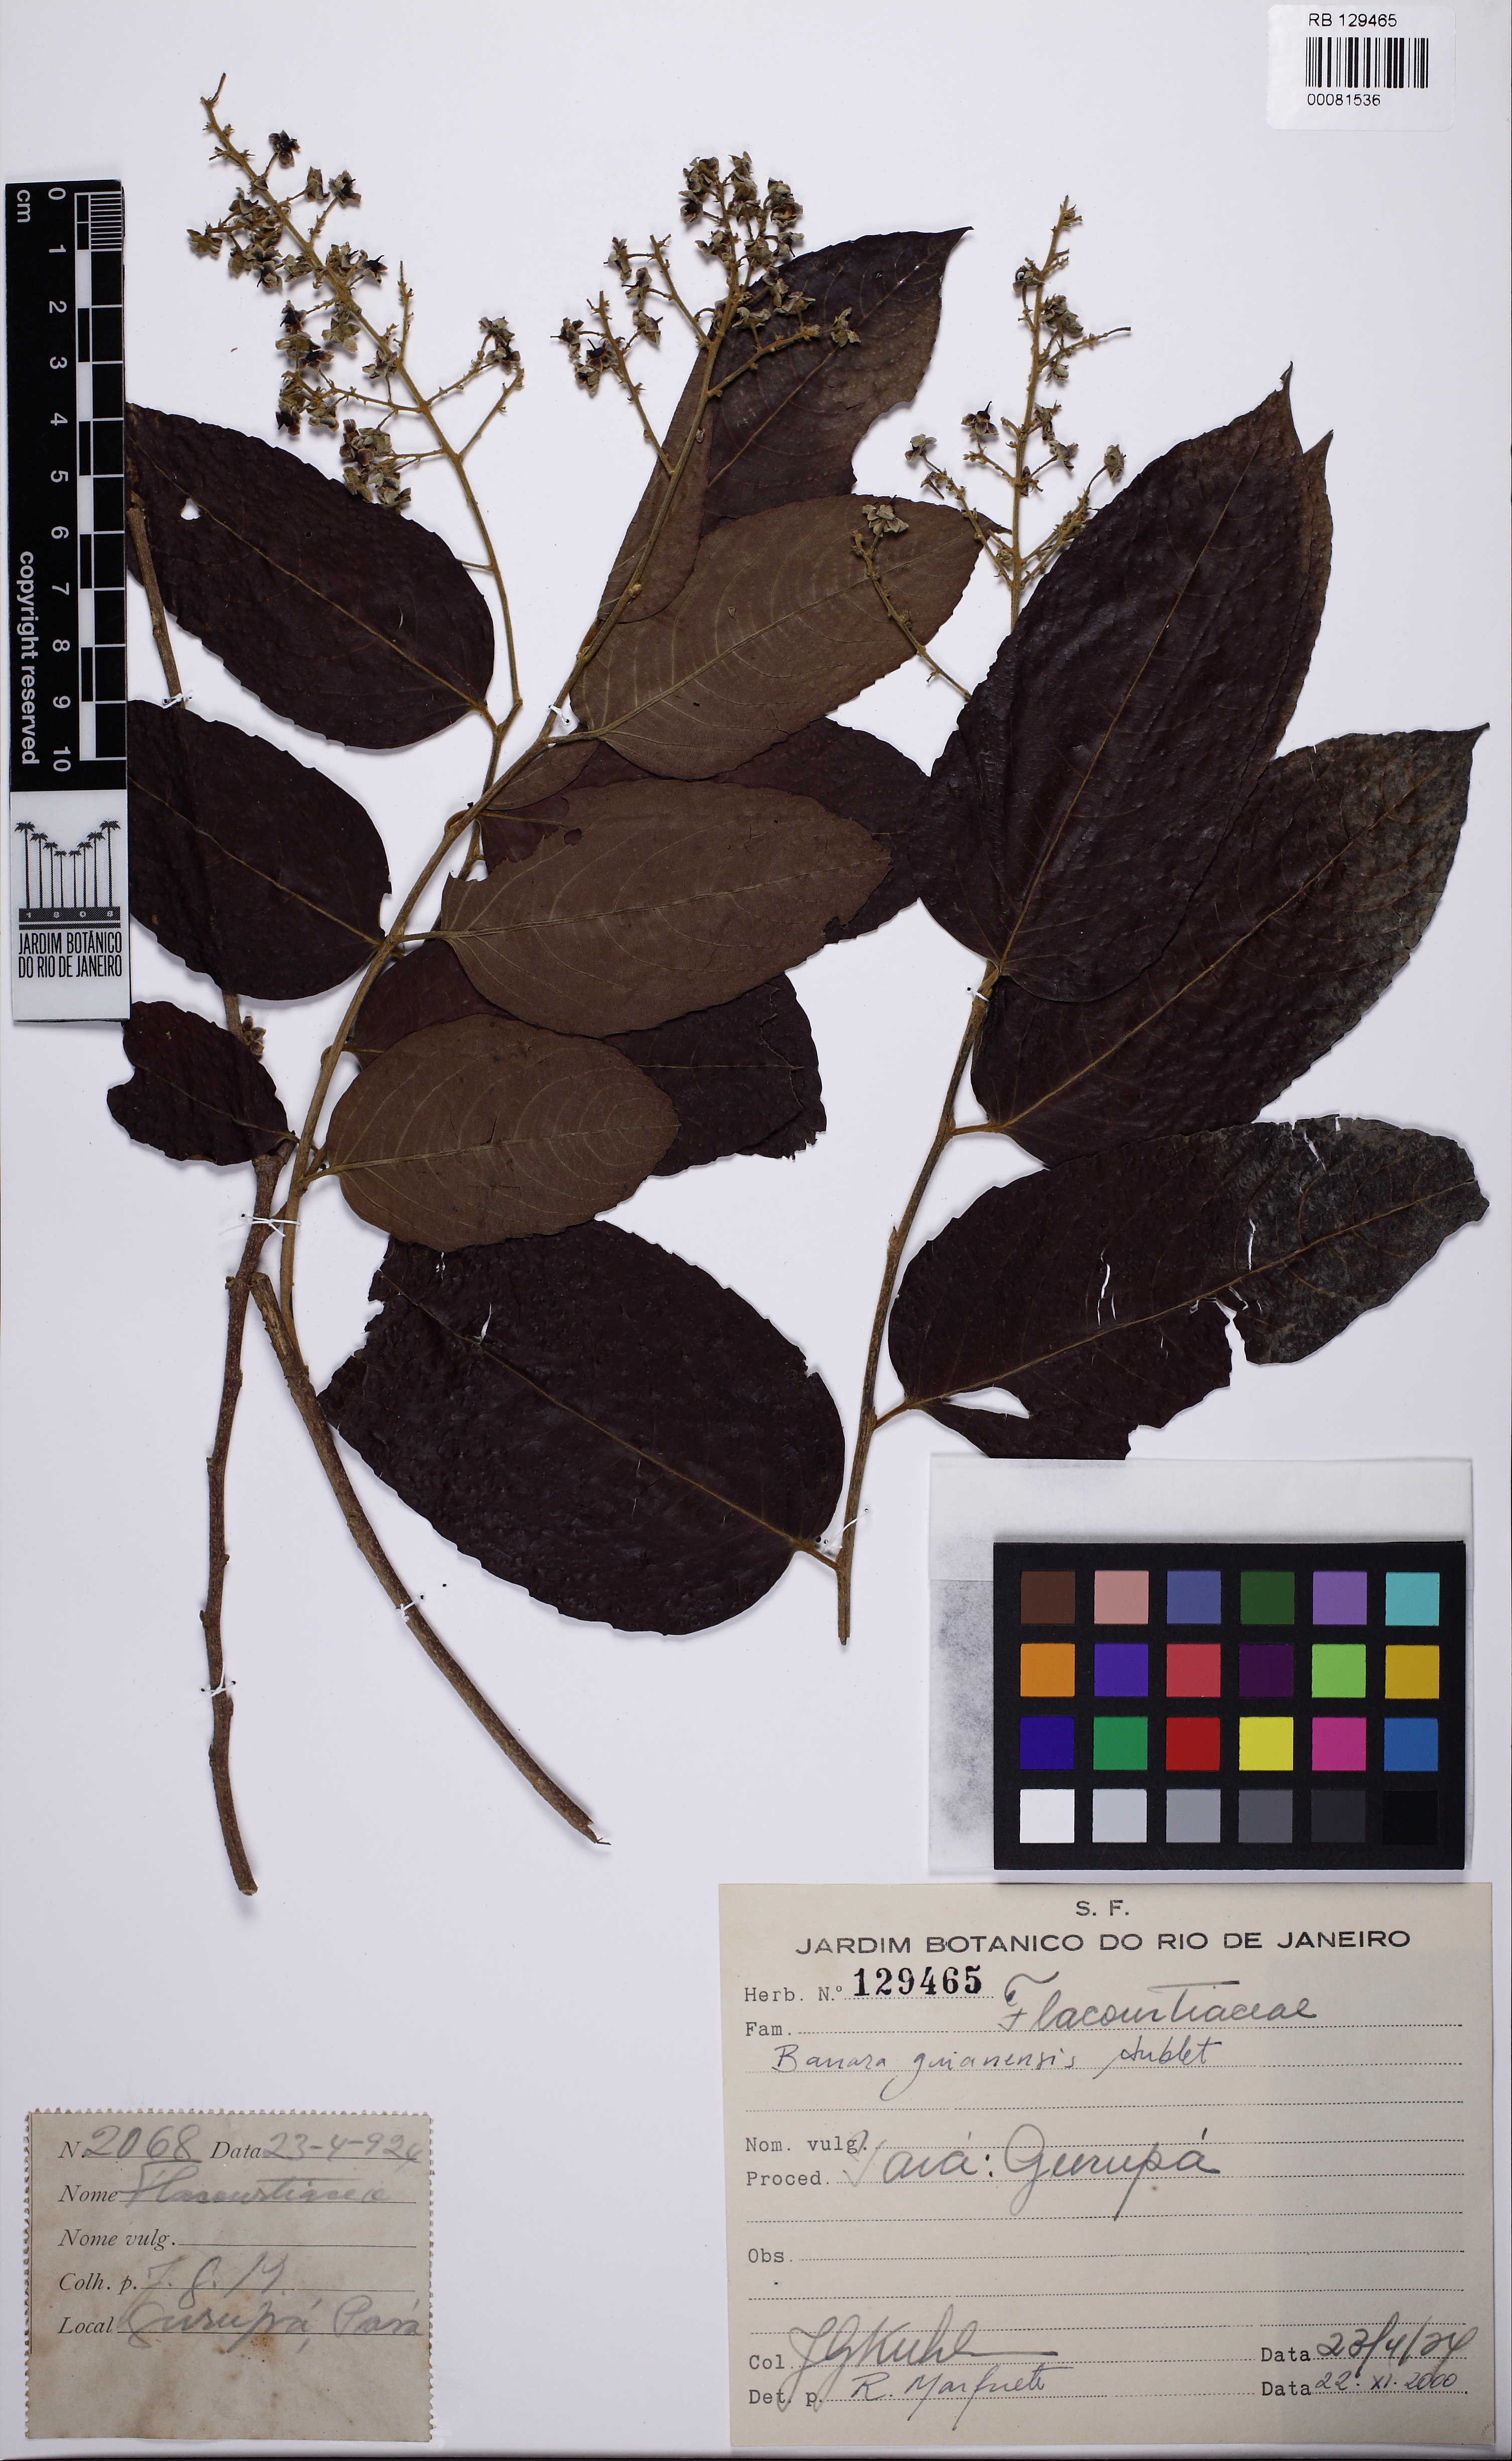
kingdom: Plantae
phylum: Tracheophyta
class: Magnoliopsida
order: Malpighiales
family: Salicaceae
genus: Banara
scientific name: Banara guianensis
